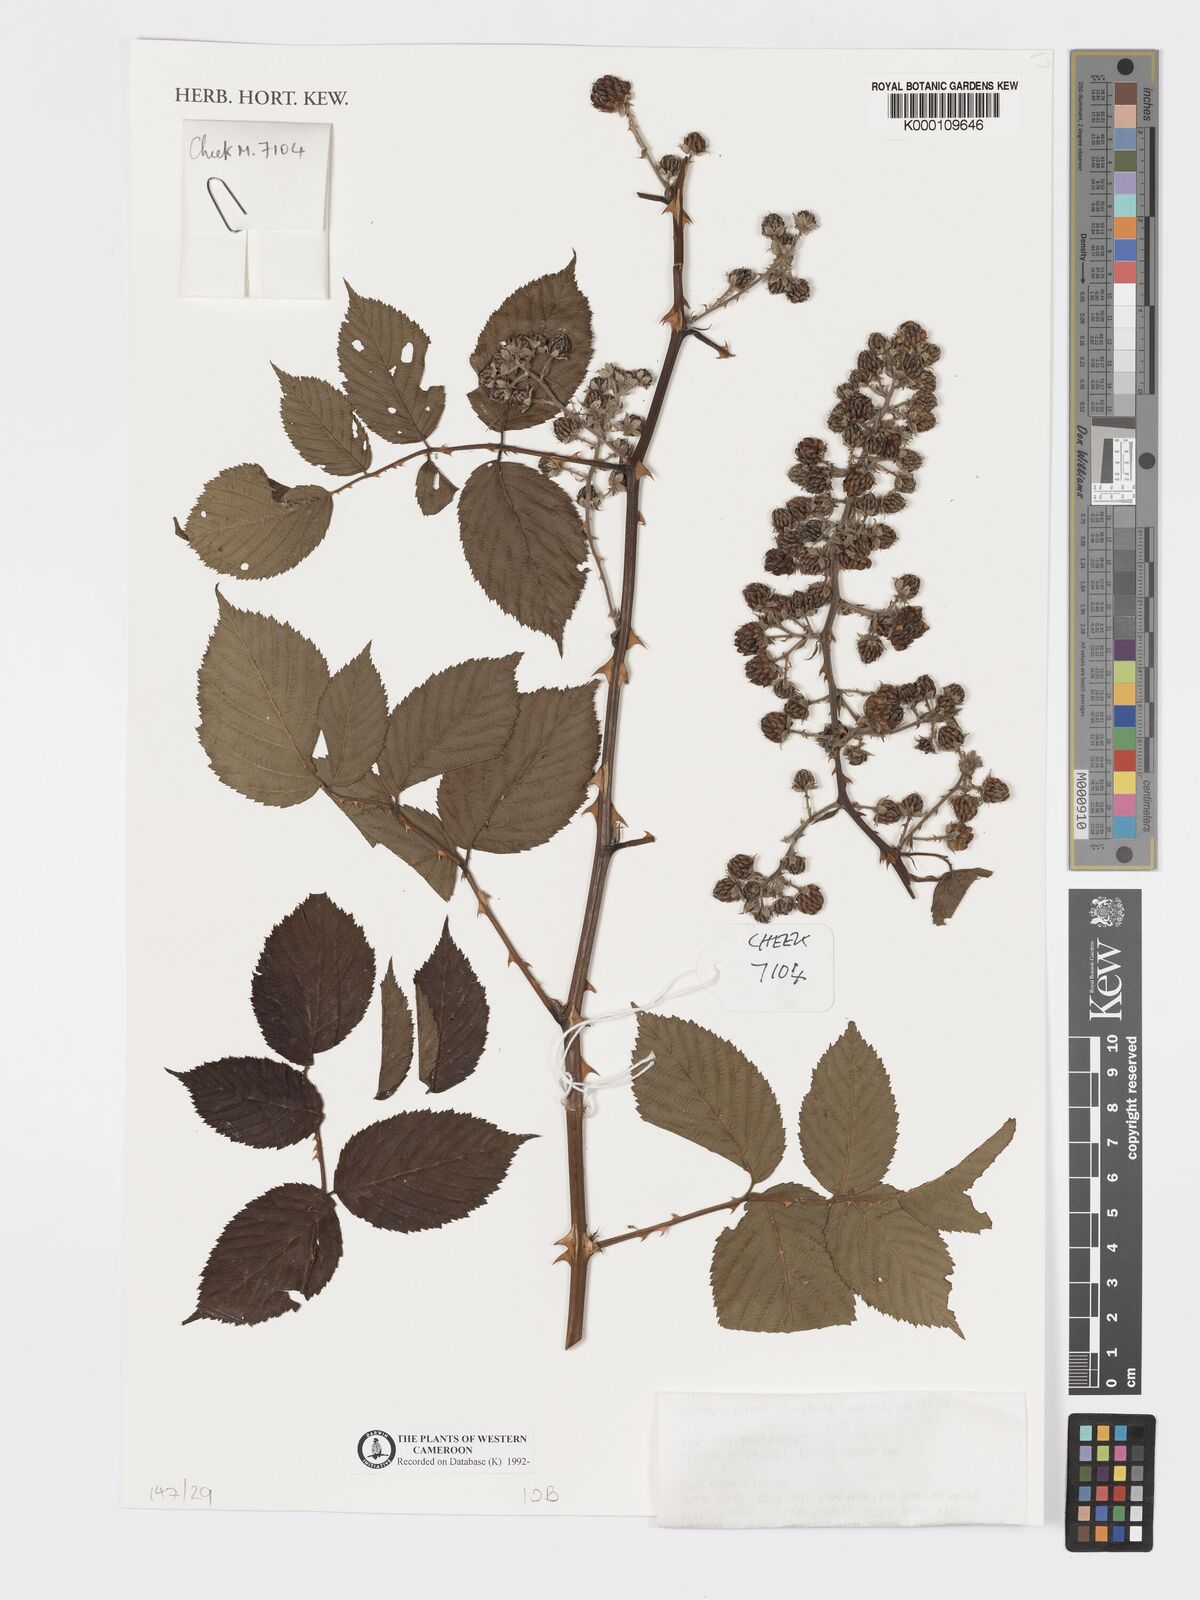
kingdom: Plantae
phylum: Tracheophyta
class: Magnoliopsida
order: Rosales
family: Rosaceae
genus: Rubus
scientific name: Rubus pinnatus
